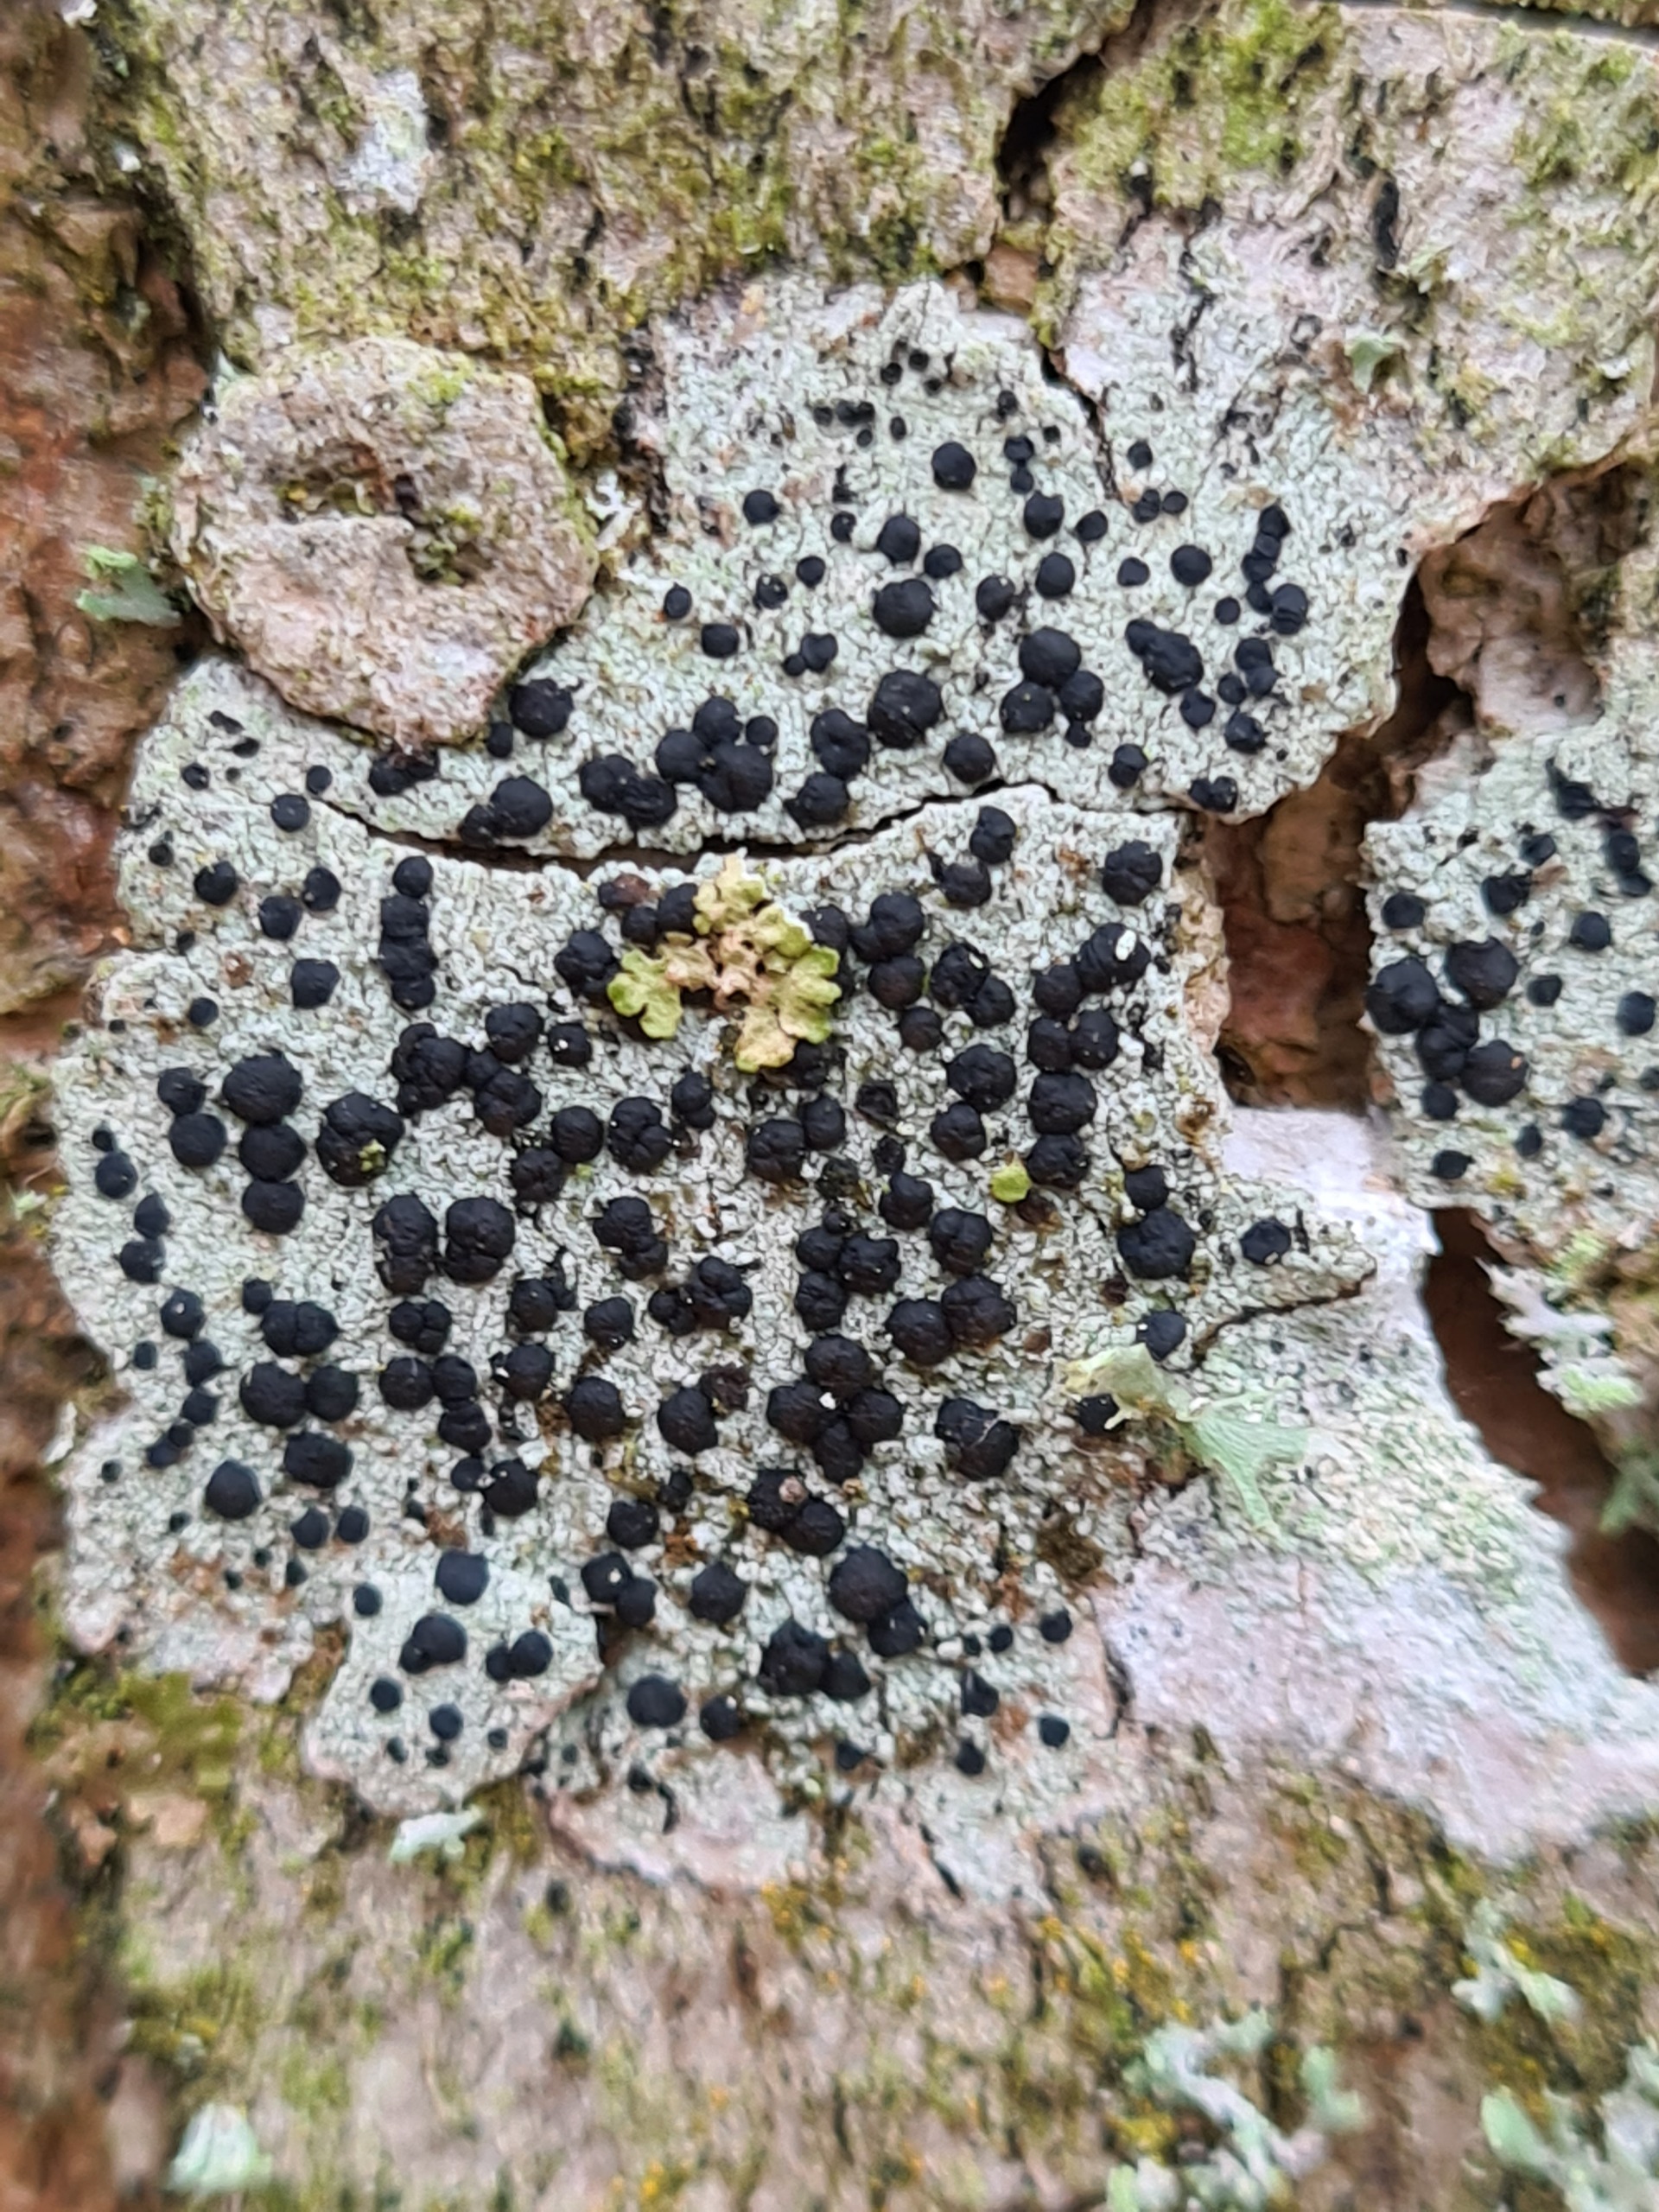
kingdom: Fungi
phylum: Ascomycota
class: Lecanoromycetes
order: Lecanorales
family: Lecanoraceae
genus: Lecidella
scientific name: Lecidella elaeochroma
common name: Grågrøn skivelav
